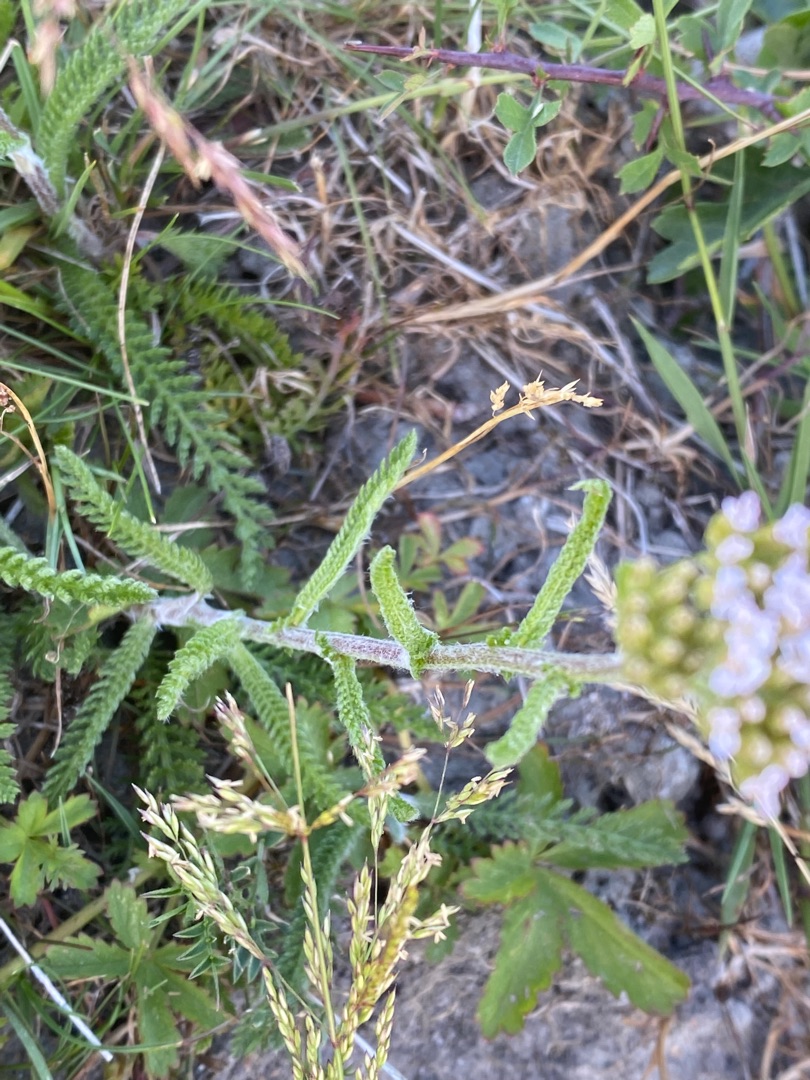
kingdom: Plantae
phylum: Tracheophyta
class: Magnoliopsida
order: Asterales
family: Asteraceae
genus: Achillea
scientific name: Achillea millefolium
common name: Almindelig røllike
